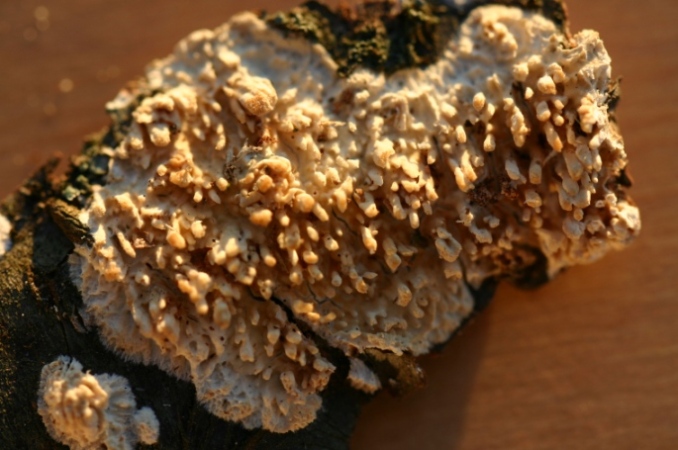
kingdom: Fungi
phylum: Basidiomycota
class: Agaricomycetes
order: Hymenochaetales
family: Schizoporaceae
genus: Xylodon
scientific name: Xylodon radula
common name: grovtandet kalkskind
